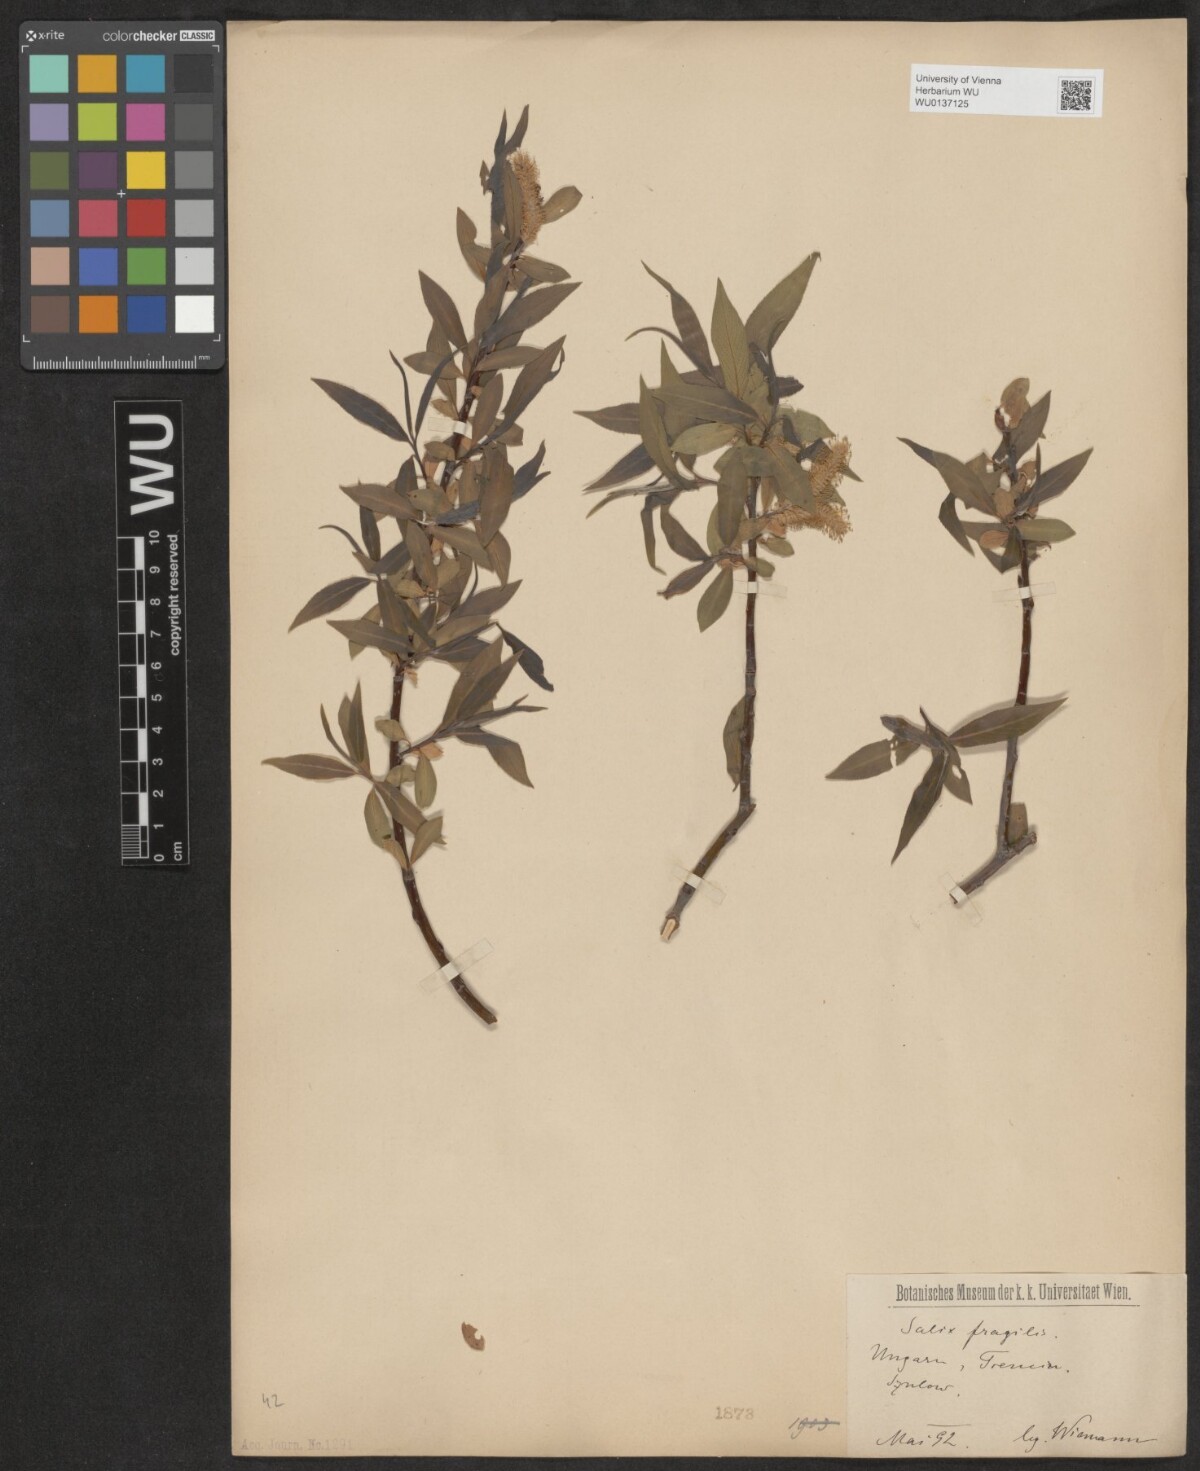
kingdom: Plantae
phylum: Tracheophyta
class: Magnoliopsida
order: Malpighiales
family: Salicaceae
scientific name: Salicaceae
